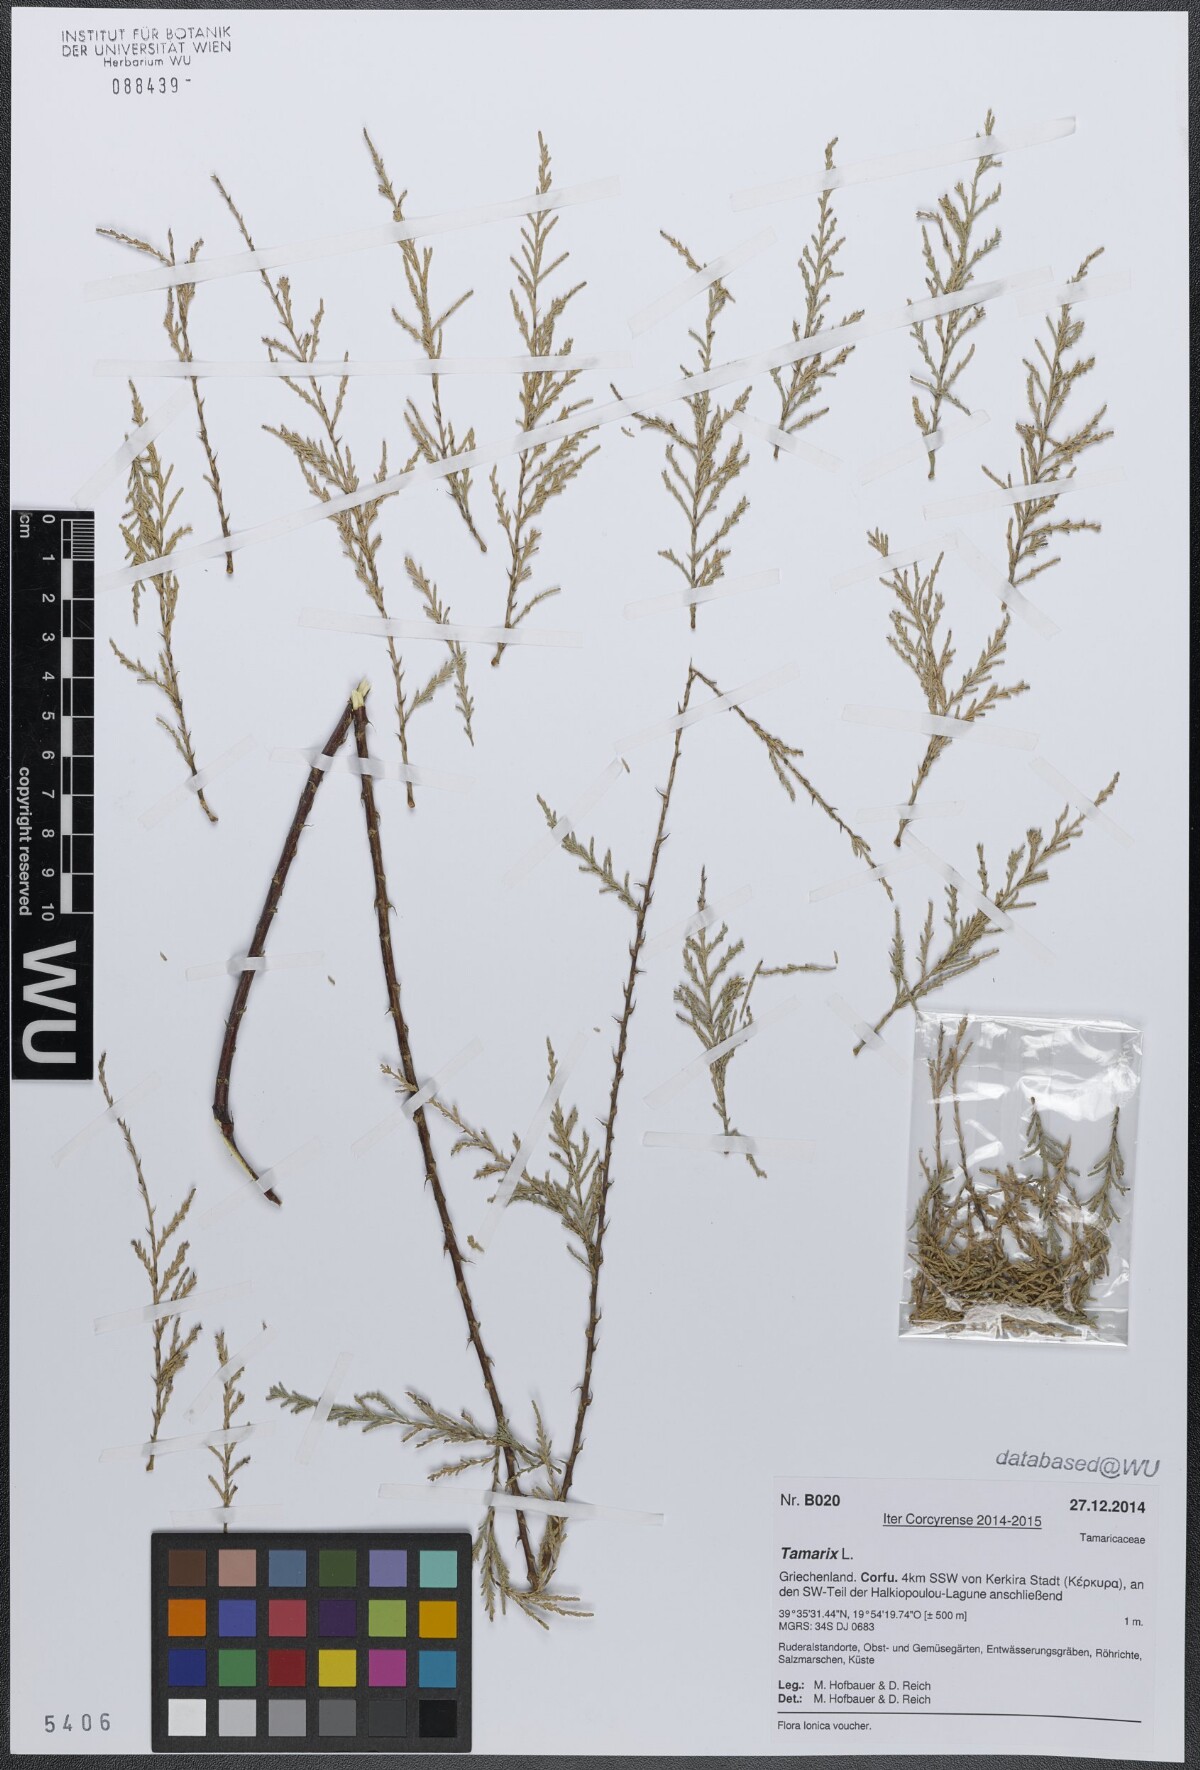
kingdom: Plantae
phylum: Tracheophyta
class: Magnoliopsida
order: Caryophyllales
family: Tamaricaceae
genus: Tamarix
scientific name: Tamarix
